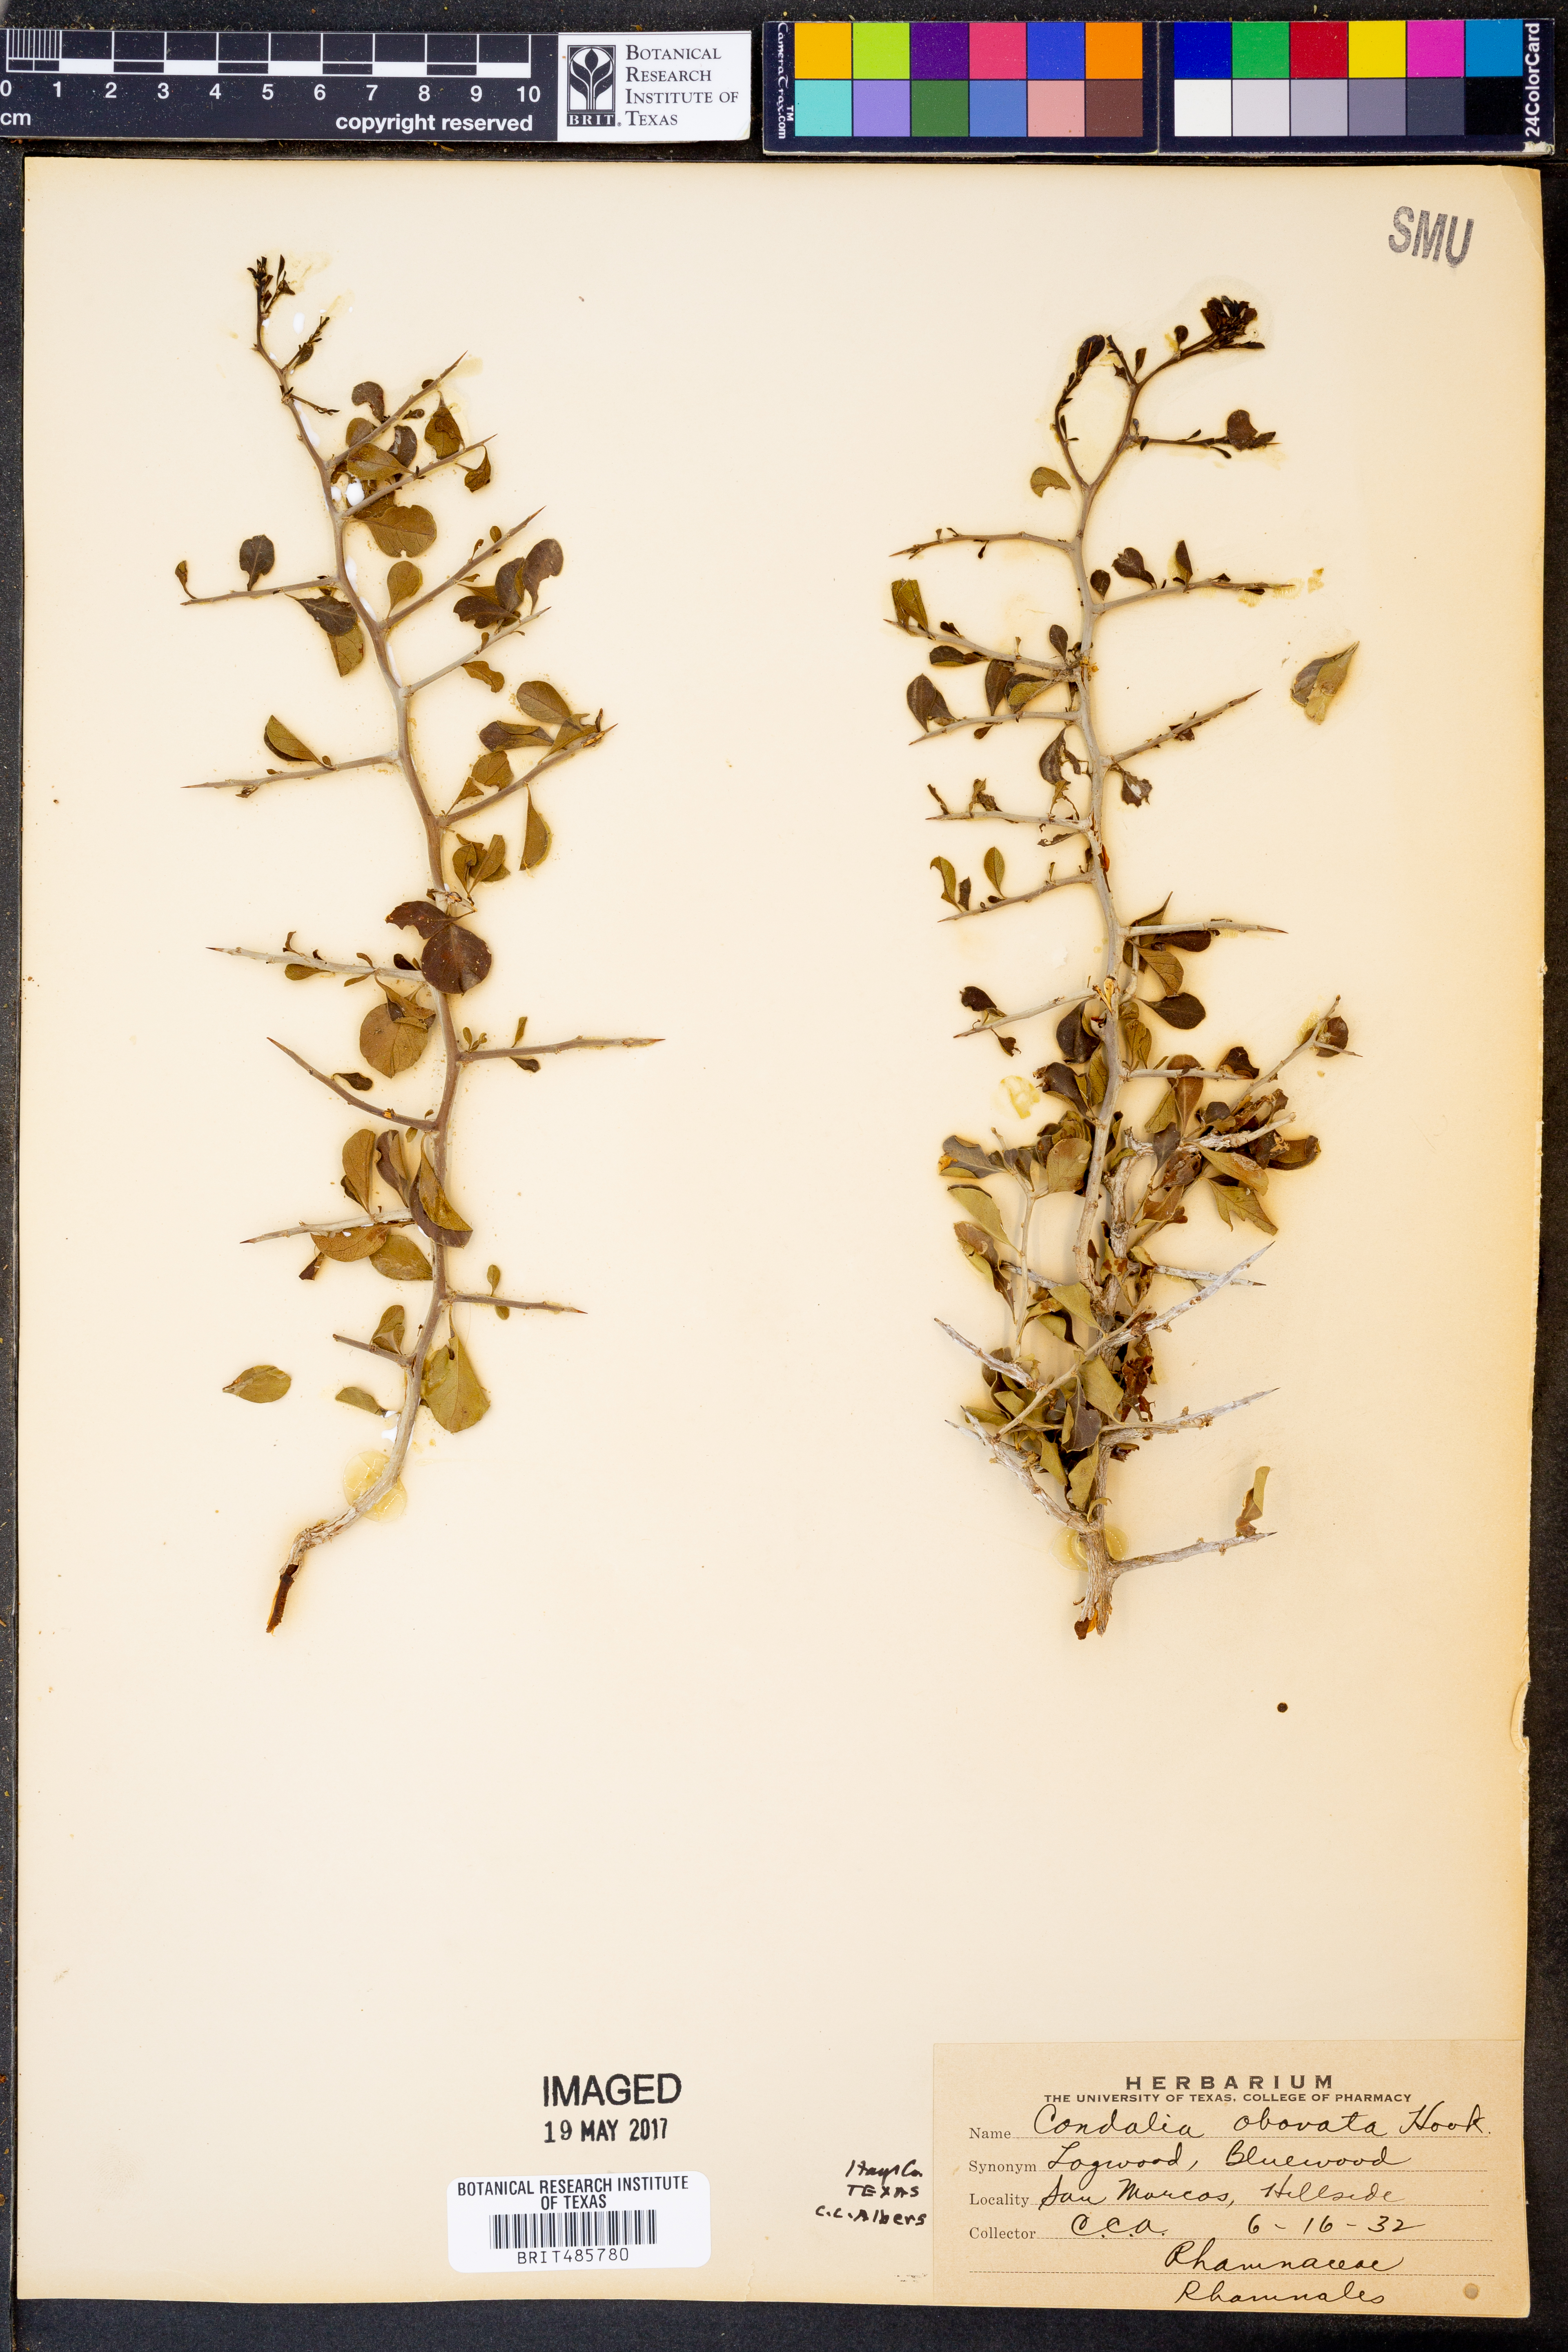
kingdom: Plantae
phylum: Tracheophyta
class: Magnoliopsida
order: Rosales
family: Rhamnaceae
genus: Condalia
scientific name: Condalia hookeri
